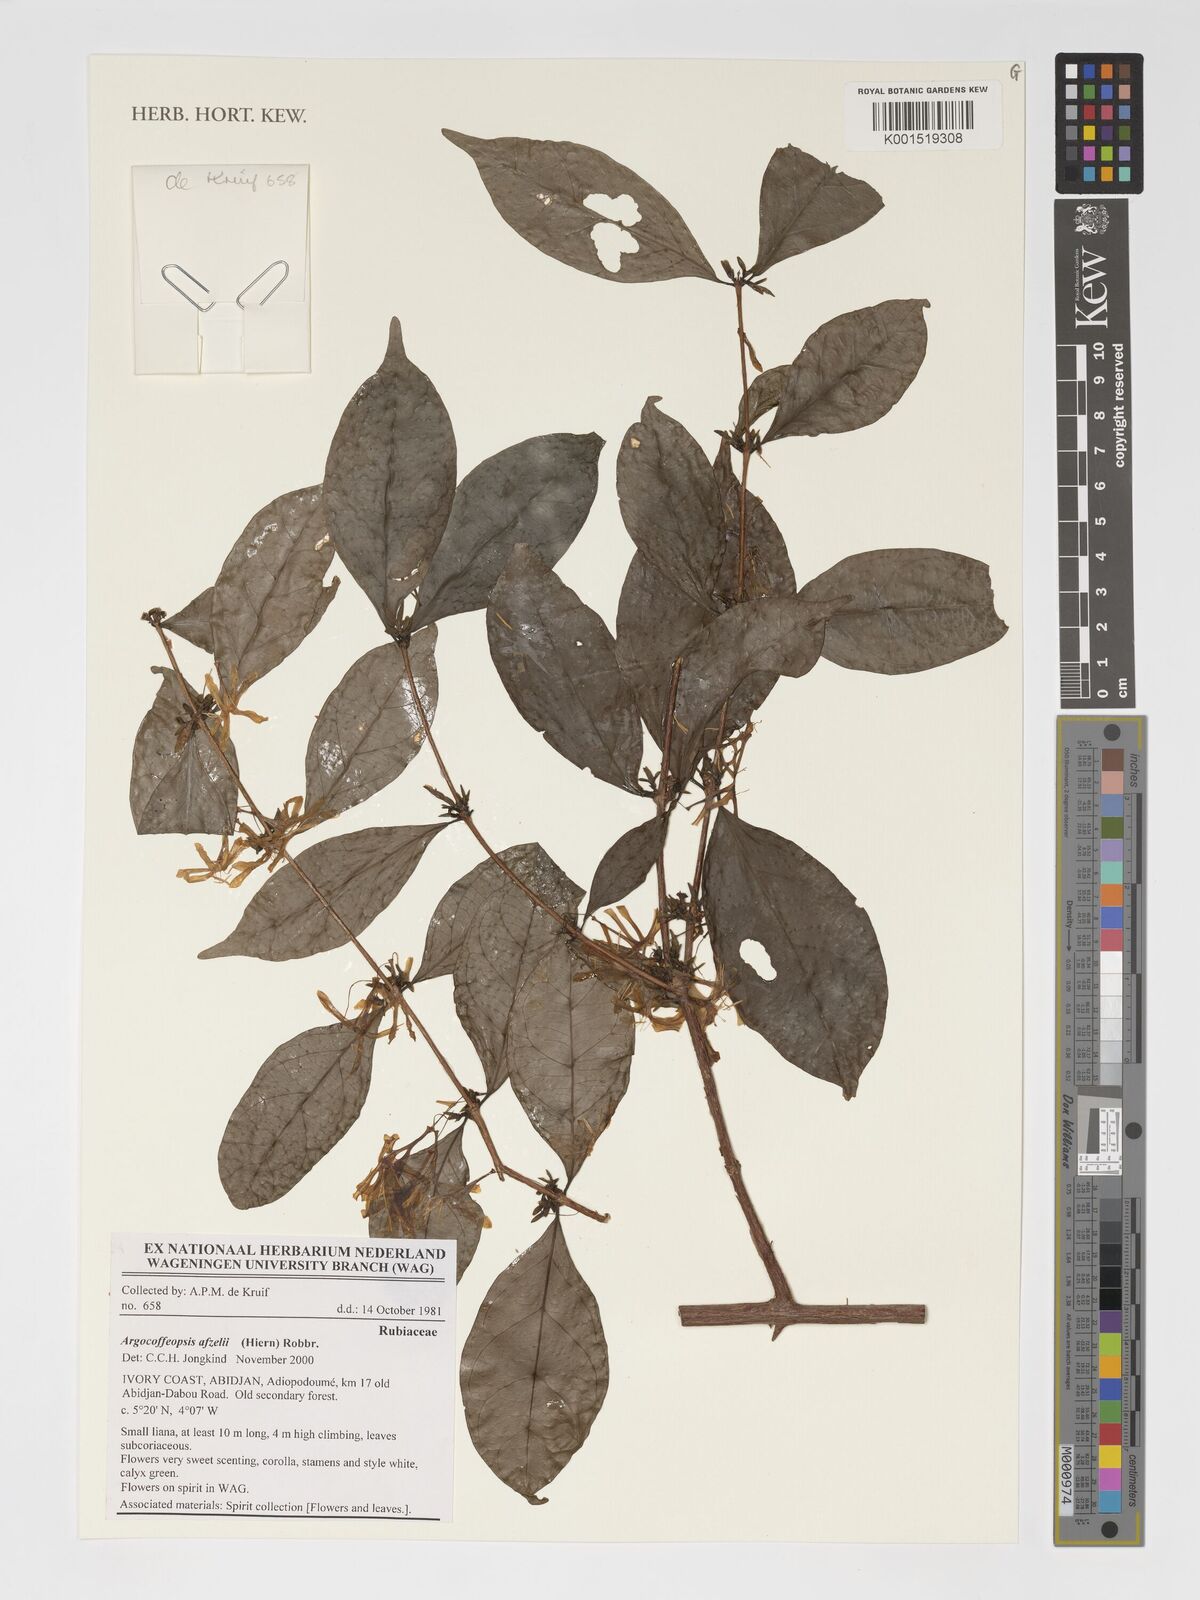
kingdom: Plantae
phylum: Tracheophyta
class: Magnoliopsida
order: Gentianales
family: Rubiaceae
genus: Argocoffeopsis
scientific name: Argocoffeopsis afzelii
